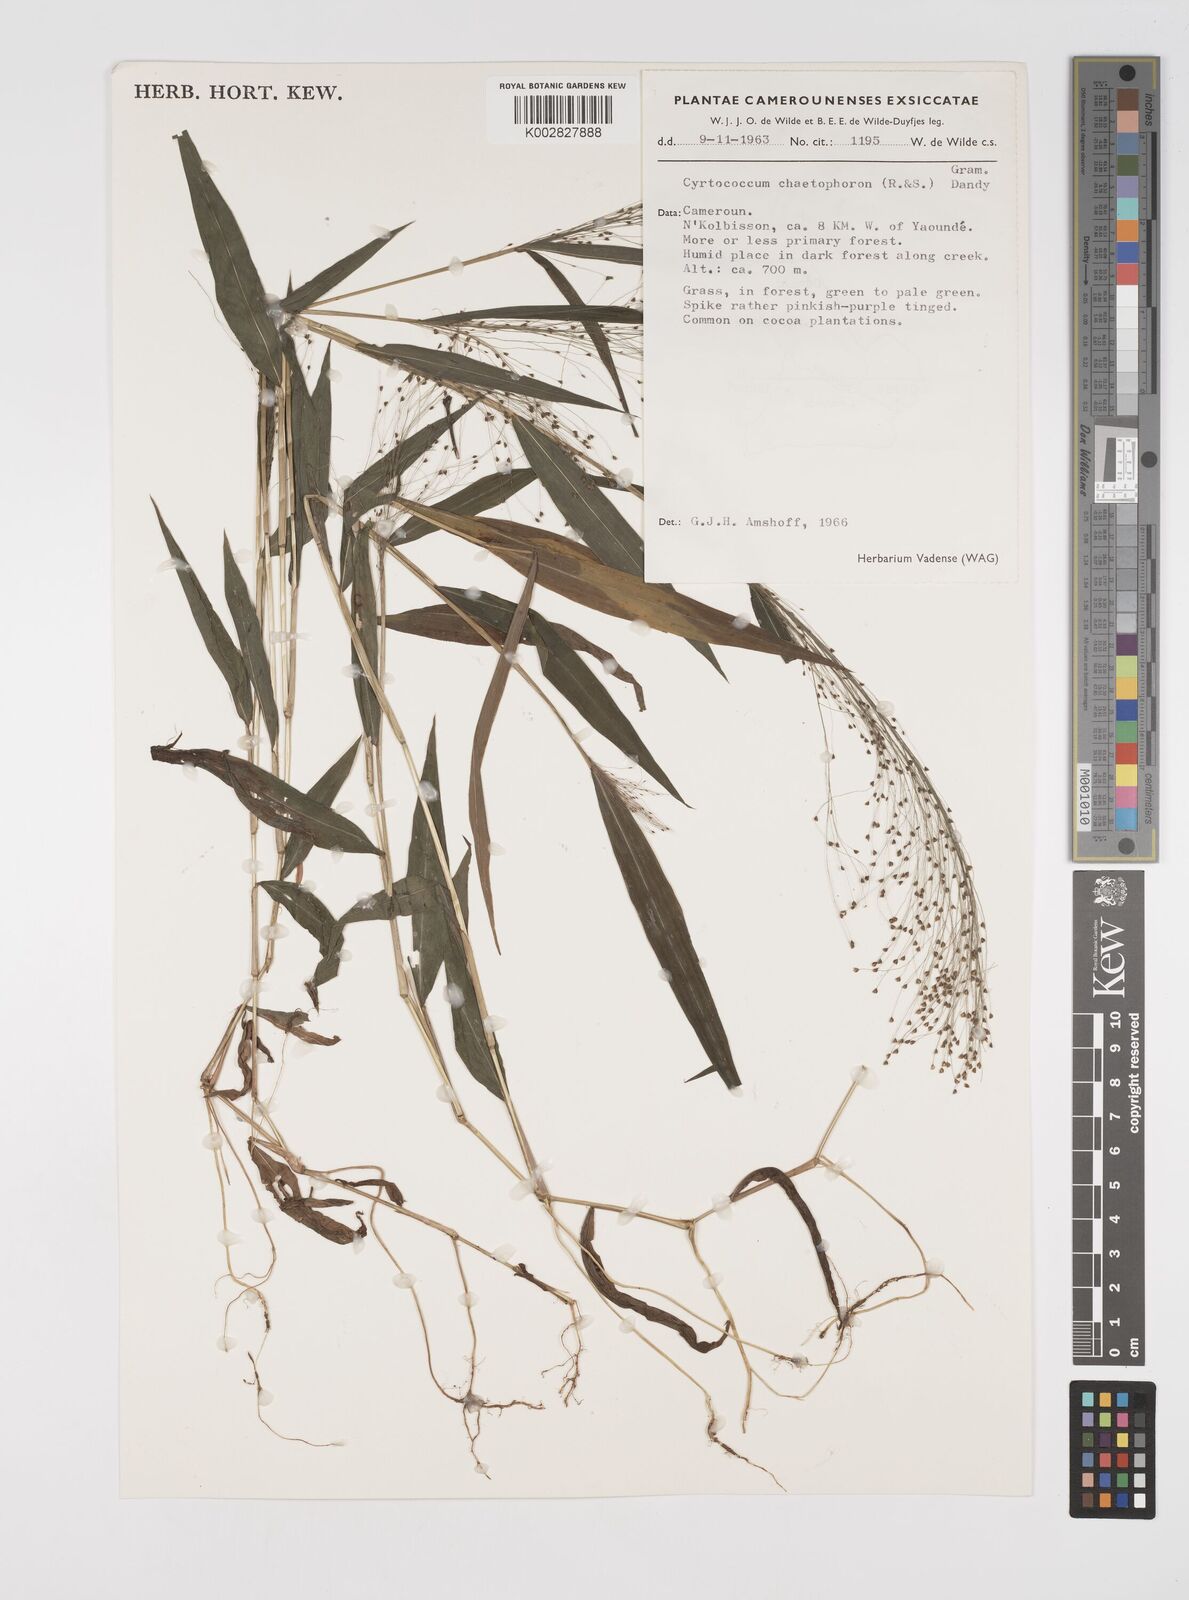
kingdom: Plantae
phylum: Tracheophyta
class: Liliopsida
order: Poales
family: Poaceae
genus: Cyrtococcum
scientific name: Cyrtococcum chaetophoron
